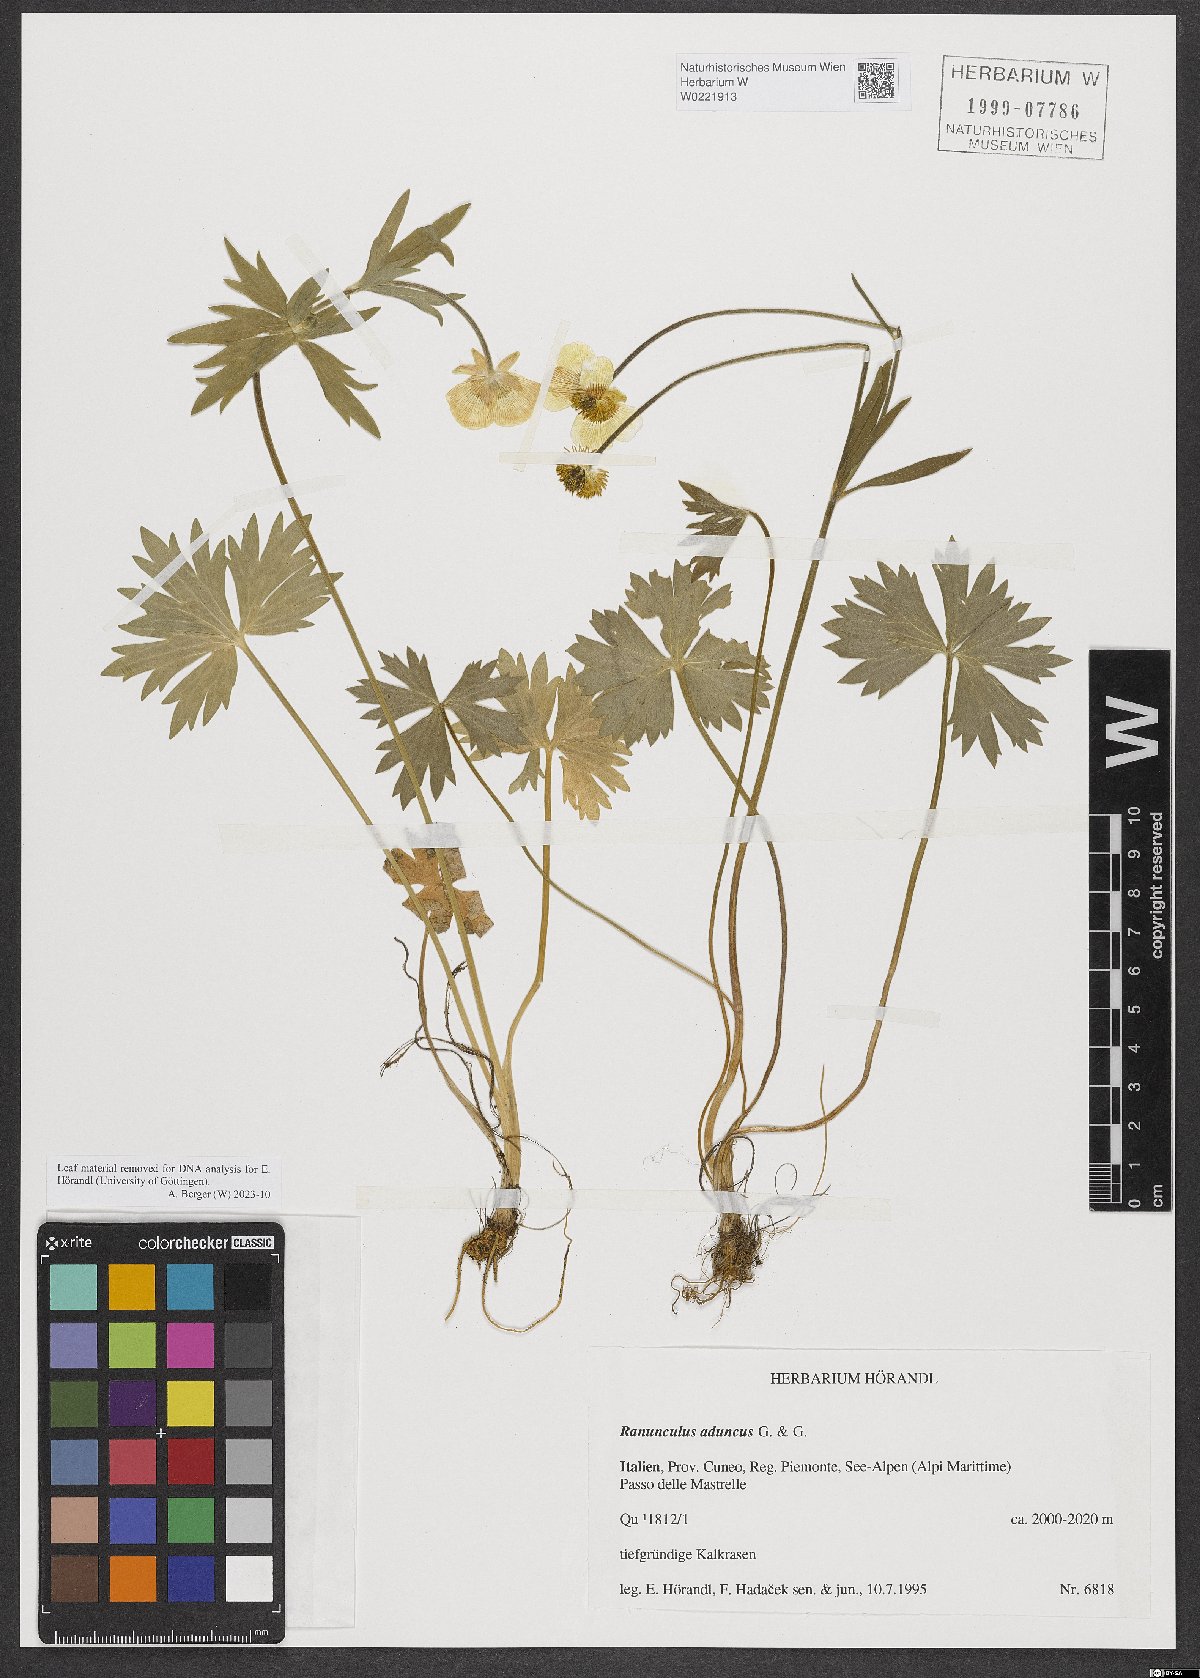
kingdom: Plantae
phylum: Tracheophyta
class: Magnoliopsida
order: Ranunculales
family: Ranunculaceae
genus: Ranunculus
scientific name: Ranunculus aduncus
